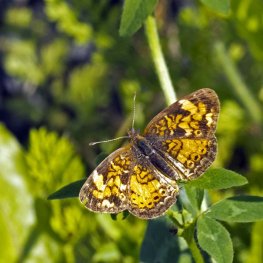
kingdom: Animalia
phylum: Arthropoda
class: Insecta
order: Lepidoptera
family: Nymphalidae
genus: Phyciodes
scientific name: Phyciodes tharos
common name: Northern Crescent
